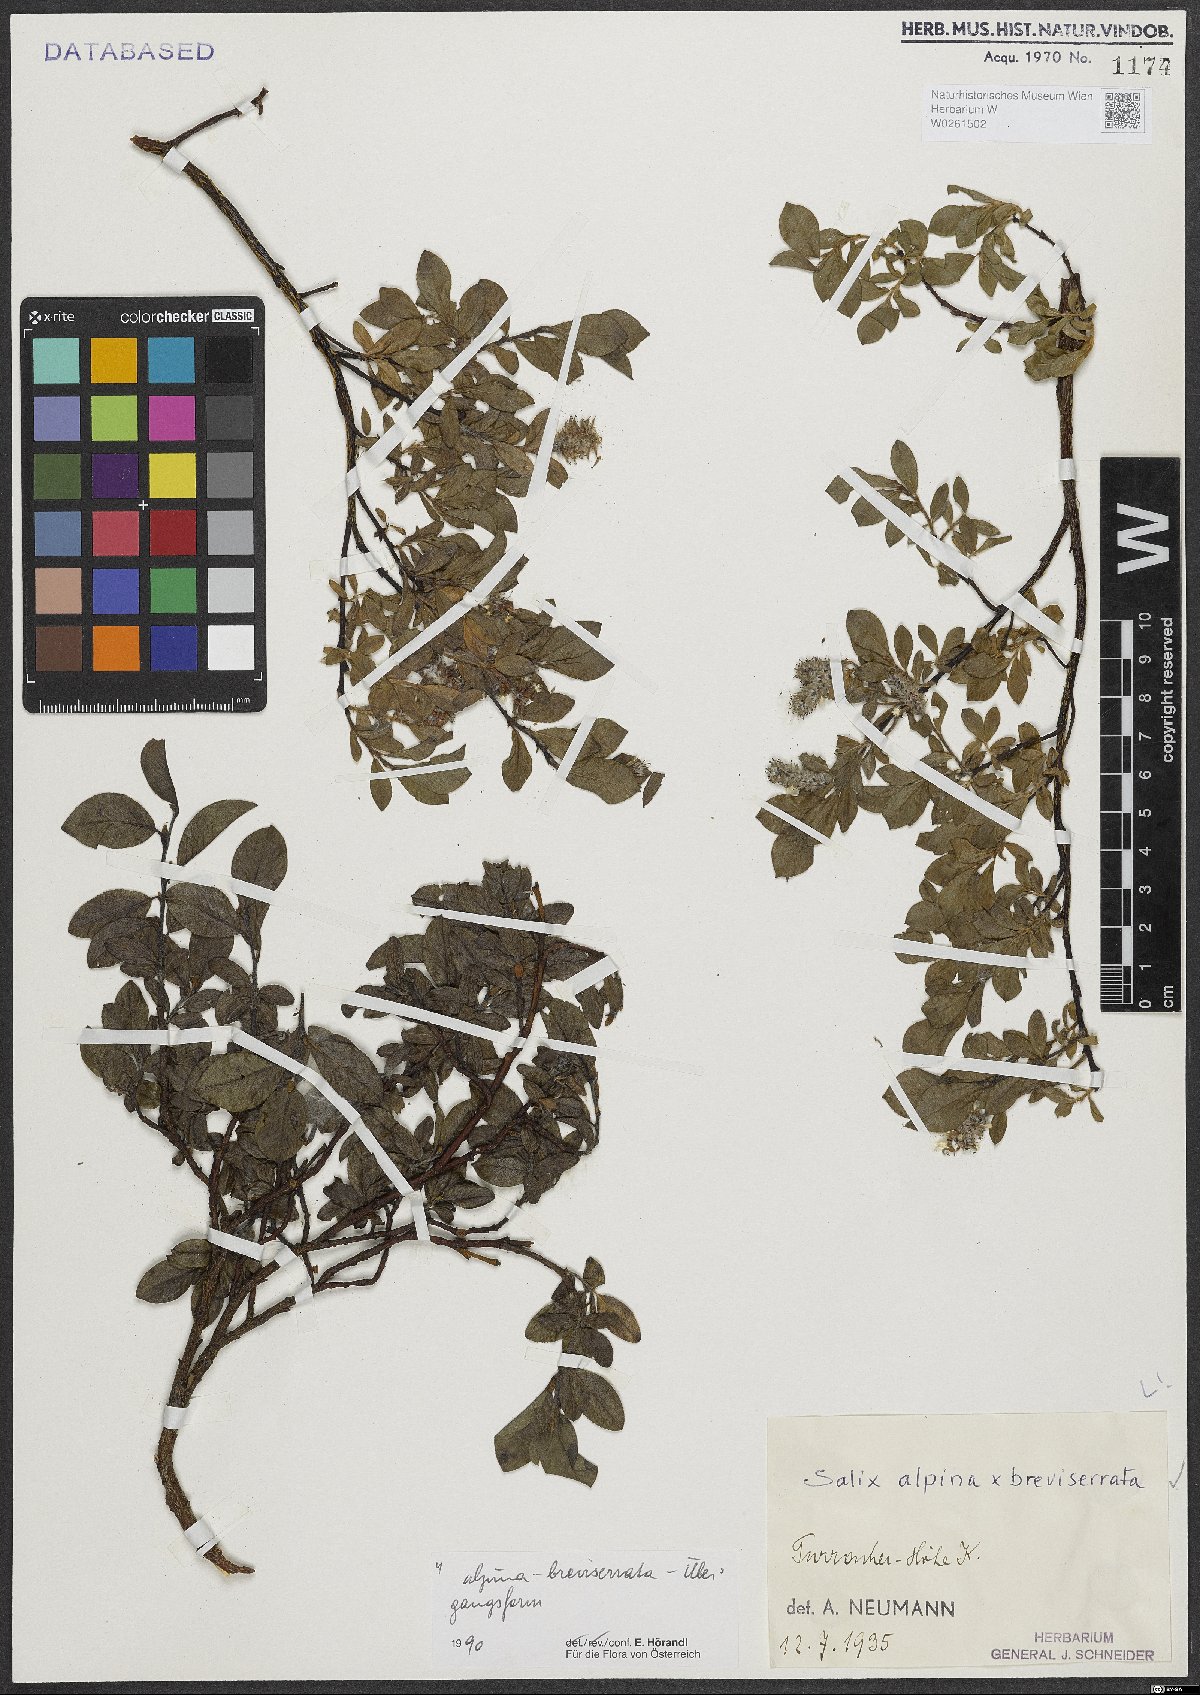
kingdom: Plantae
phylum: Tracheophyta
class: Magnoliopsida
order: Malpighiales
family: Salicaceae
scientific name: Salicaceae
